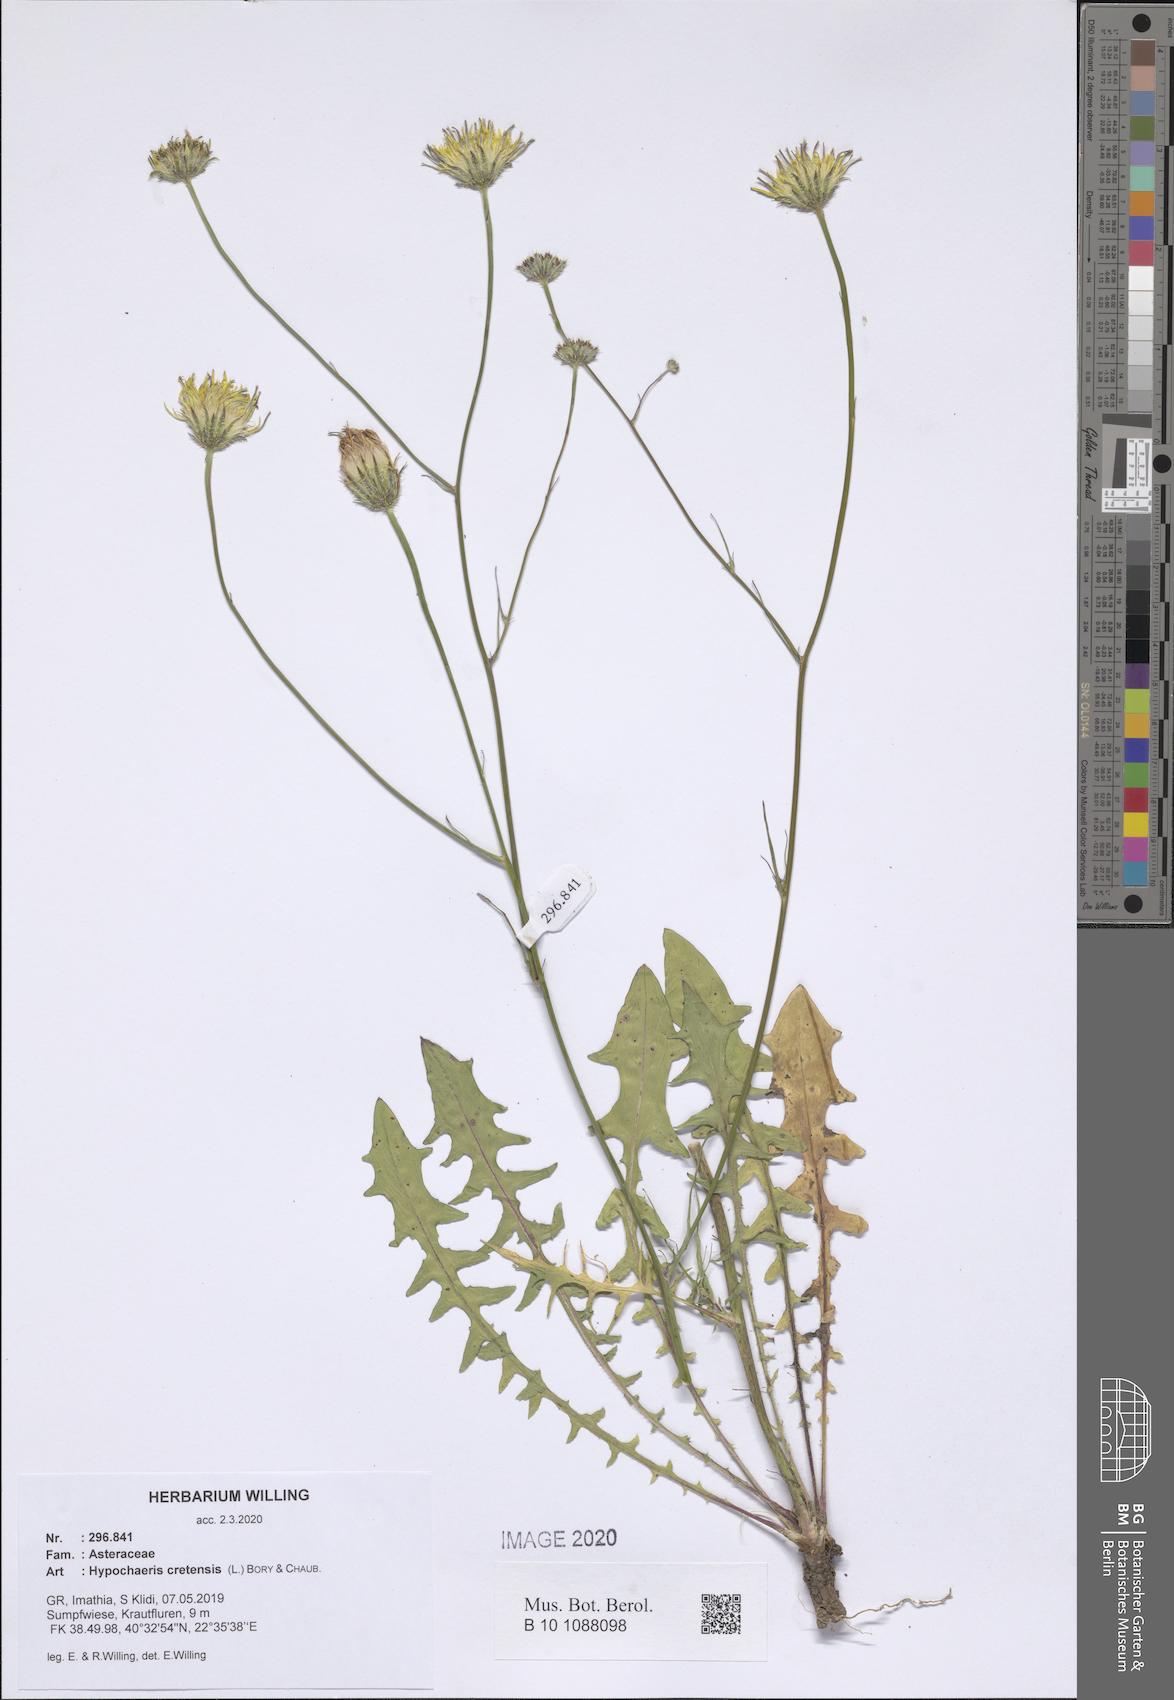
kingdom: Plantae
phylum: Tracheophyta
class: Magnoliopsida
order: Asterales
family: Asteraceae
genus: Hypochaeris
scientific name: Hypochaeris cretensis
